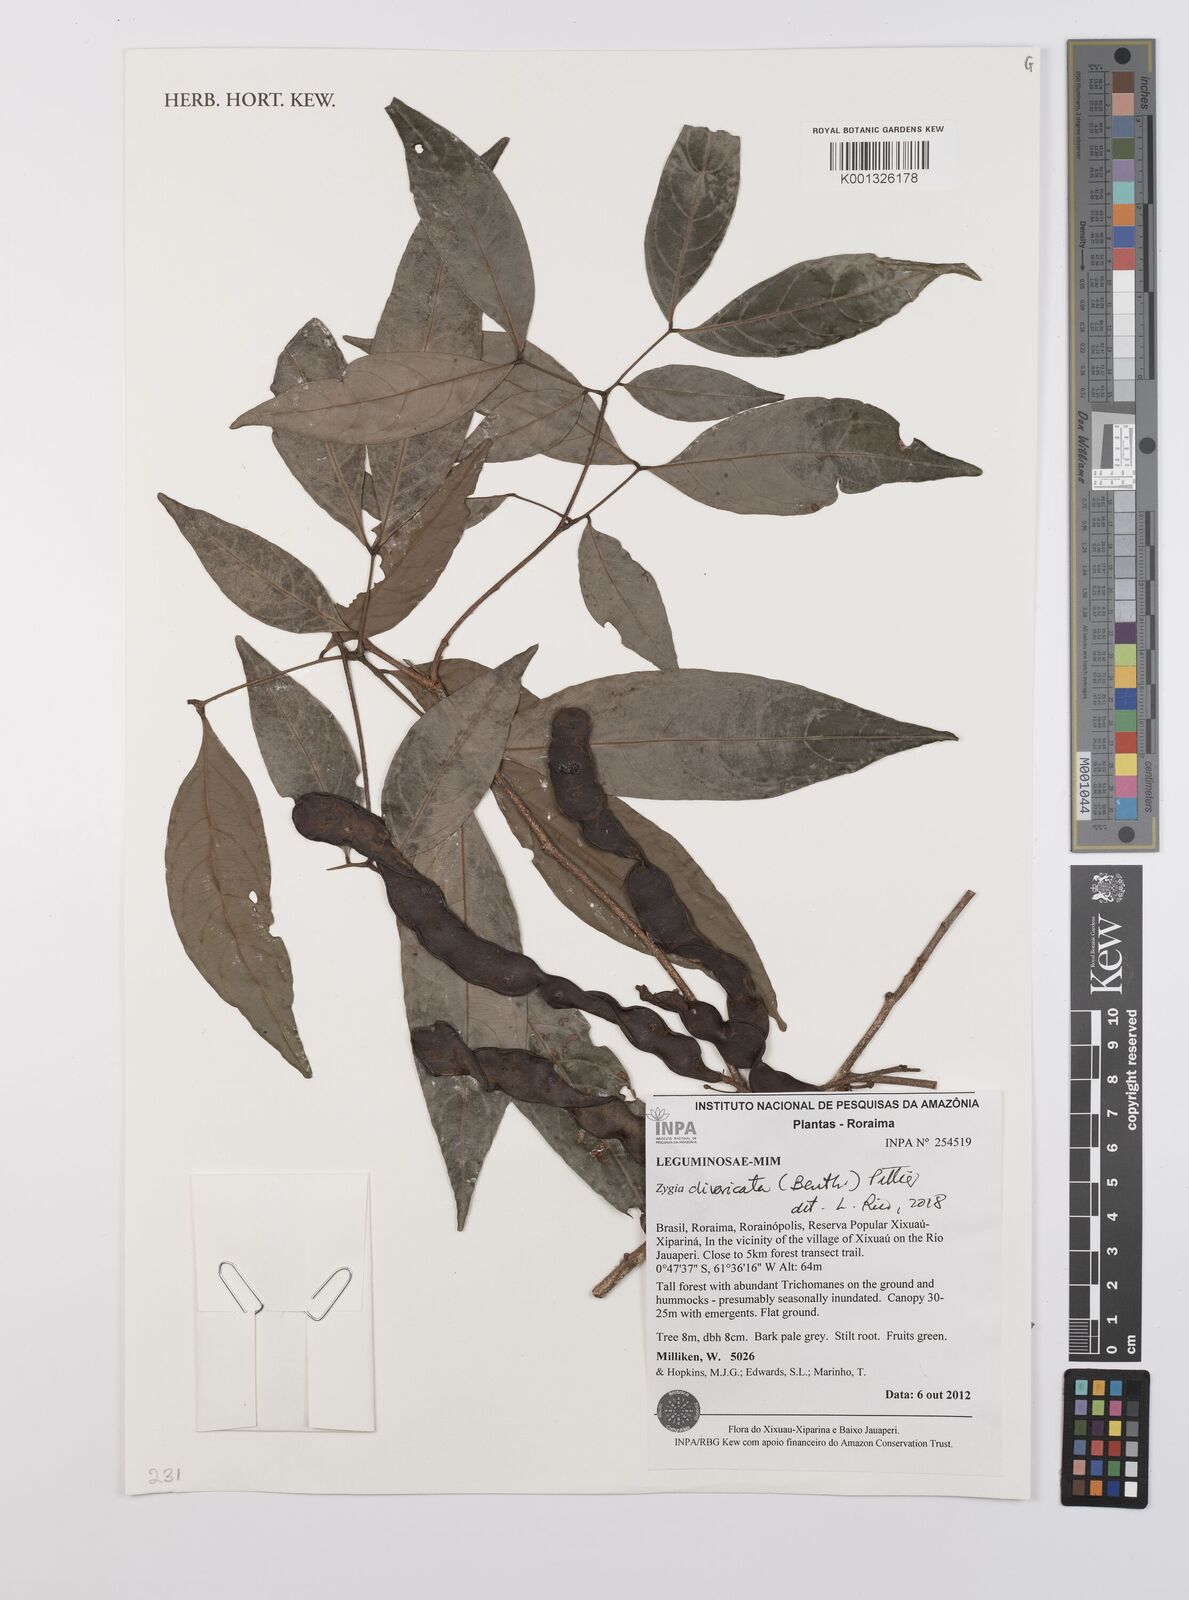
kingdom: Plantae
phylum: Tracheophyta
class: Magnoliopsida
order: Fabales
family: Fabaceae
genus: Zygia
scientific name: Zygia cataractae
